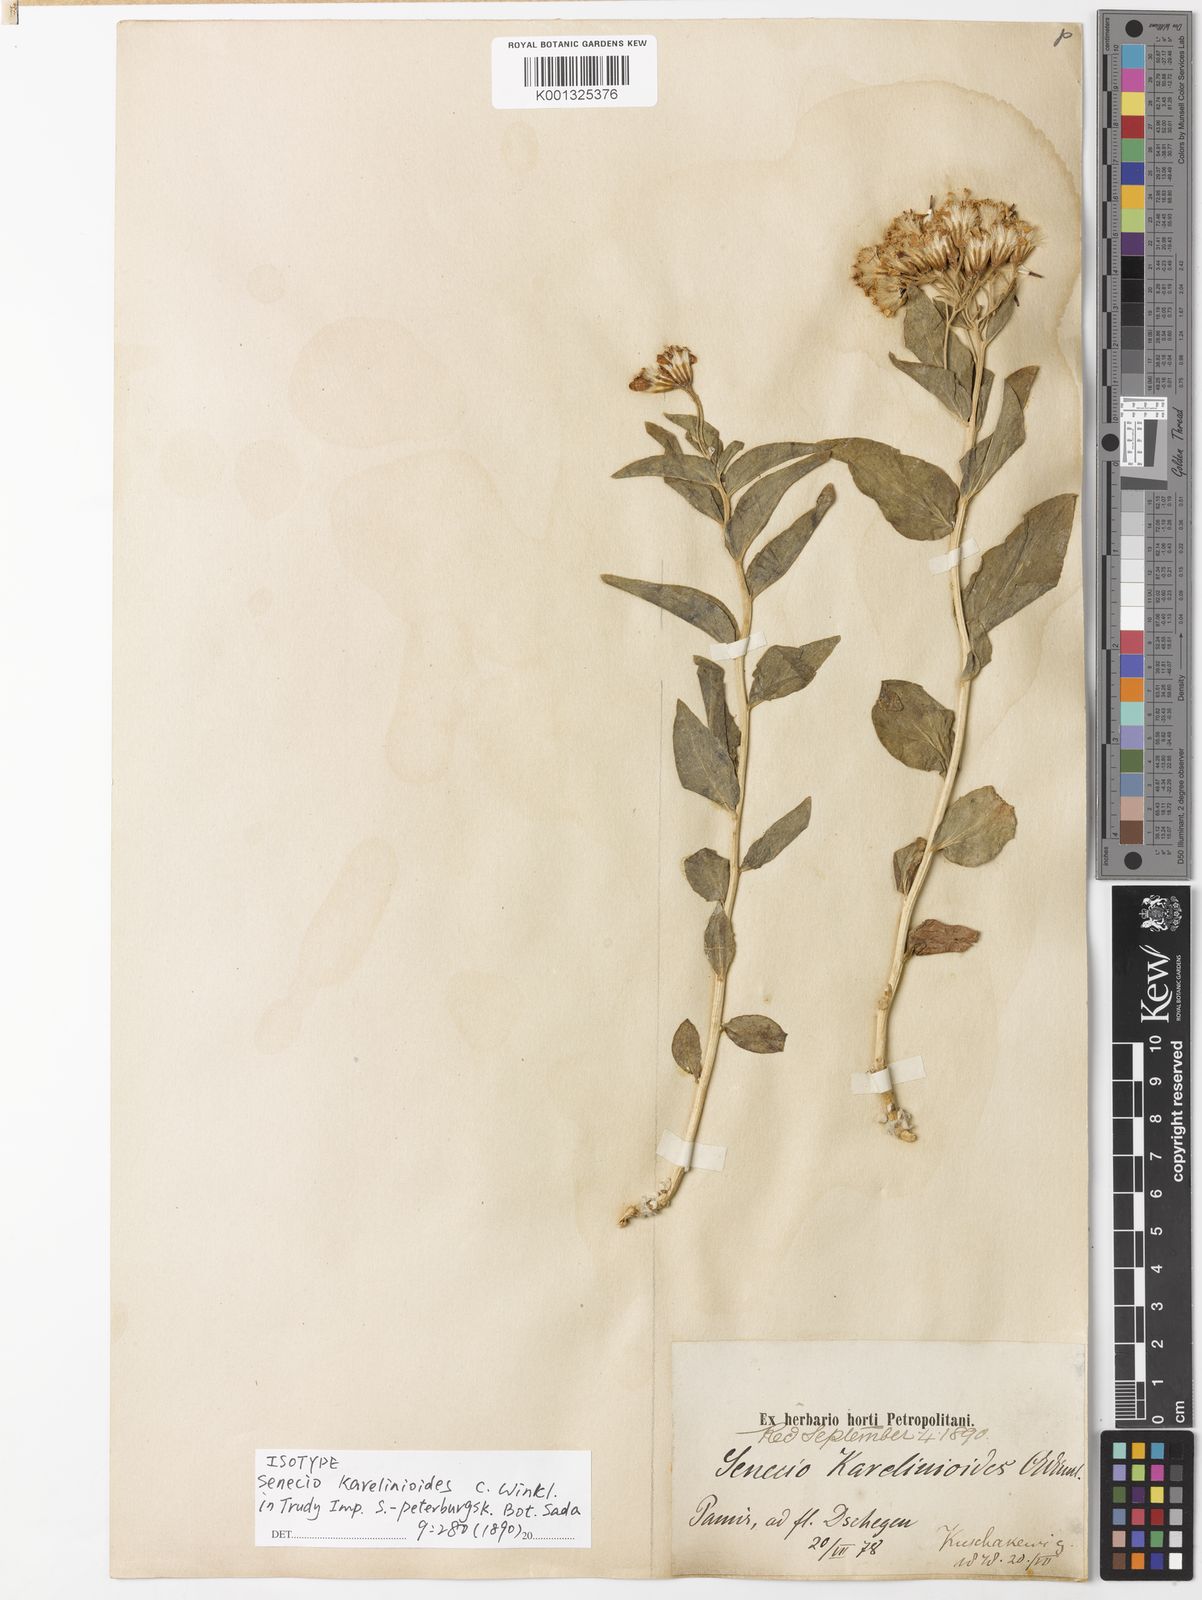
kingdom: Plantae
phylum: Tracheophyta
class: Magnoliopsida
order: Asterales
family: Asteraceae
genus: Synotis
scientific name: Synotis
